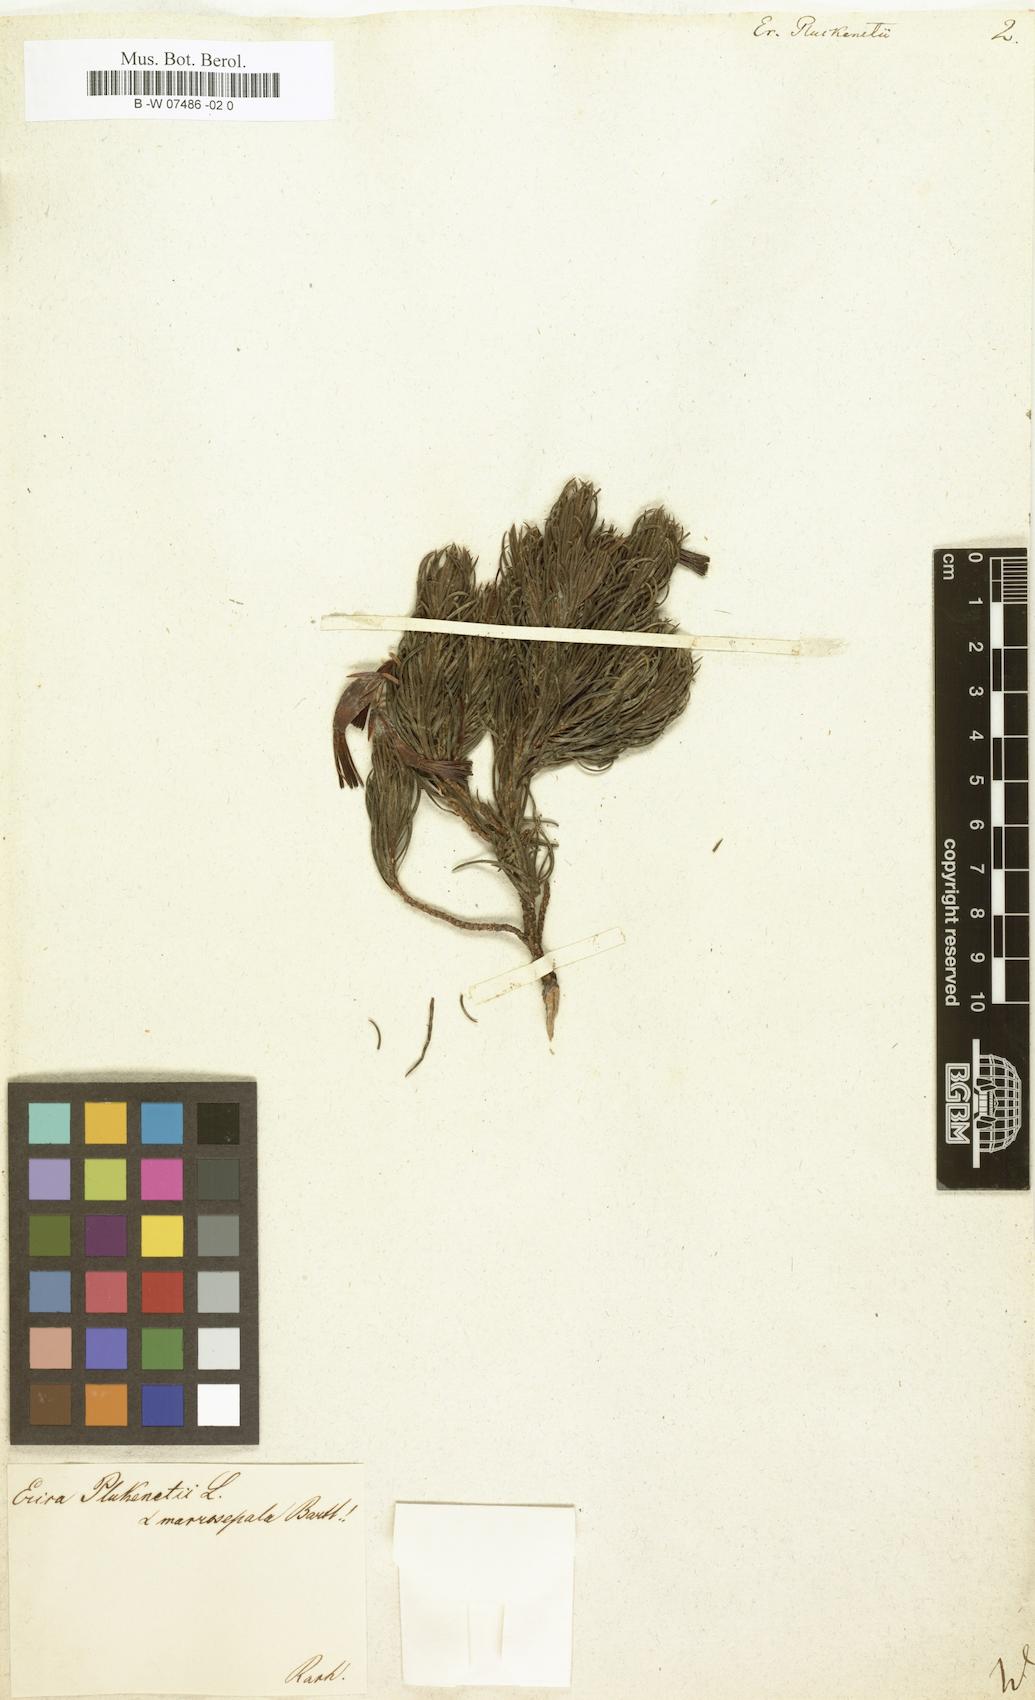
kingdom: Plantae
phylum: Tracheophyta
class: Magnoliopsida
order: Ericales
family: Ericaceae
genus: Erica
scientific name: Erica plukenetii
